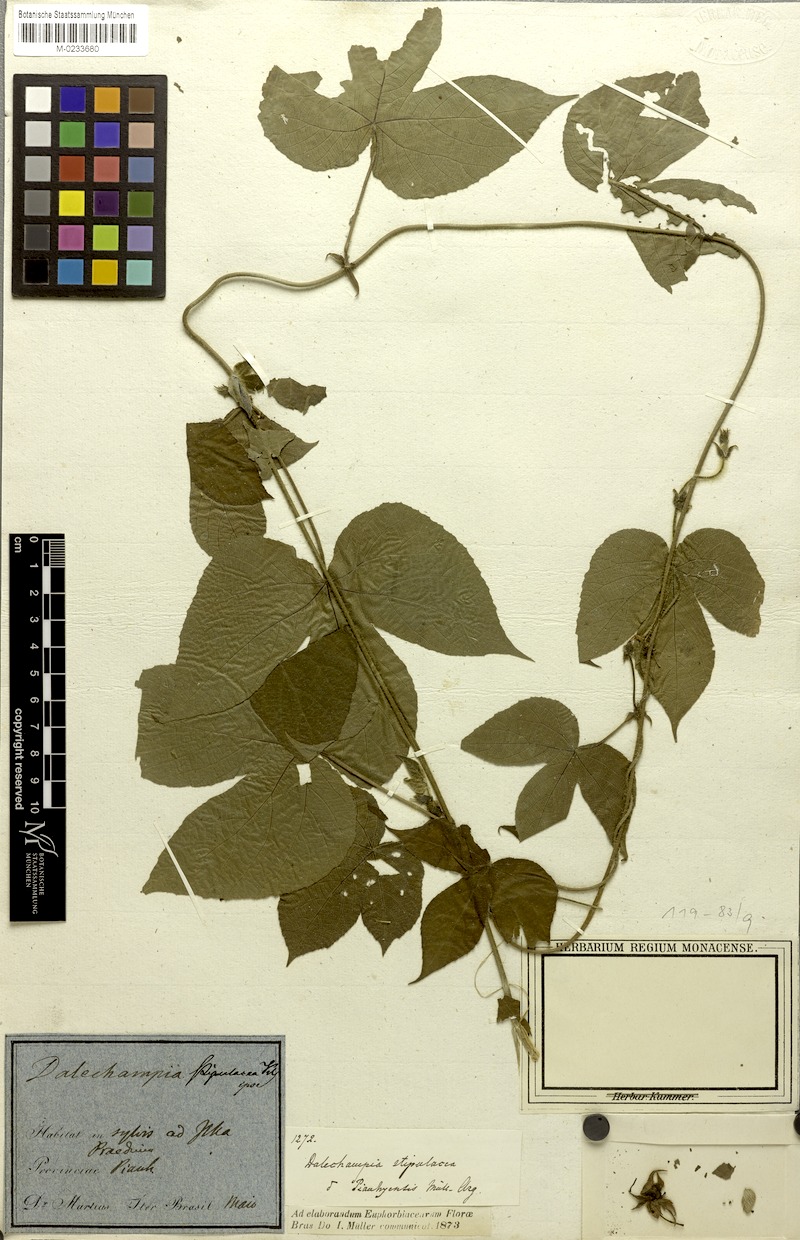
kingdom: Plantae
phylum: Tracheophyta
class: Magnoliopsida
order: Malpighiales
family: Euphorbiaceae
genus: Dalechampia
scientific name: Dalechampia stipulacea
